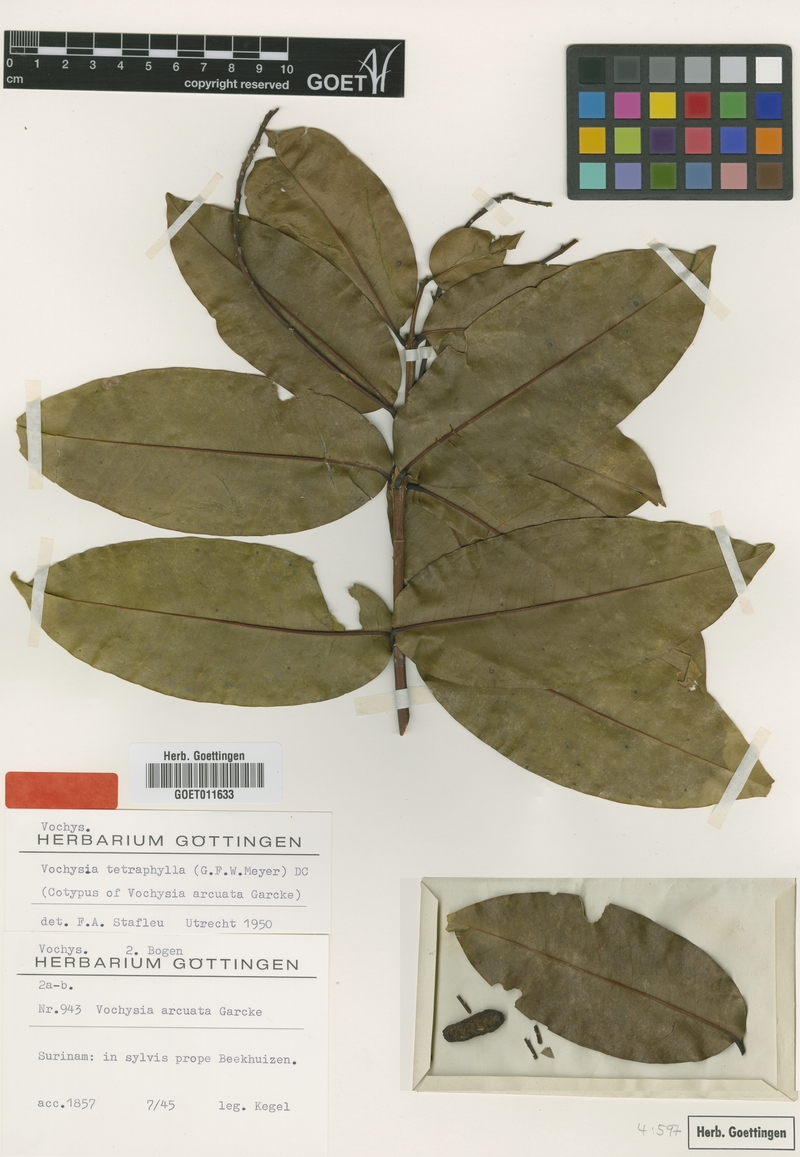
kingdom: Plantae
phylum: Tracheophyta
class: Magnoliopsida
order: Myrtales
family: Vochysiaceae
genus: Vochysia
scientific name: Vochysia tetraphylla
